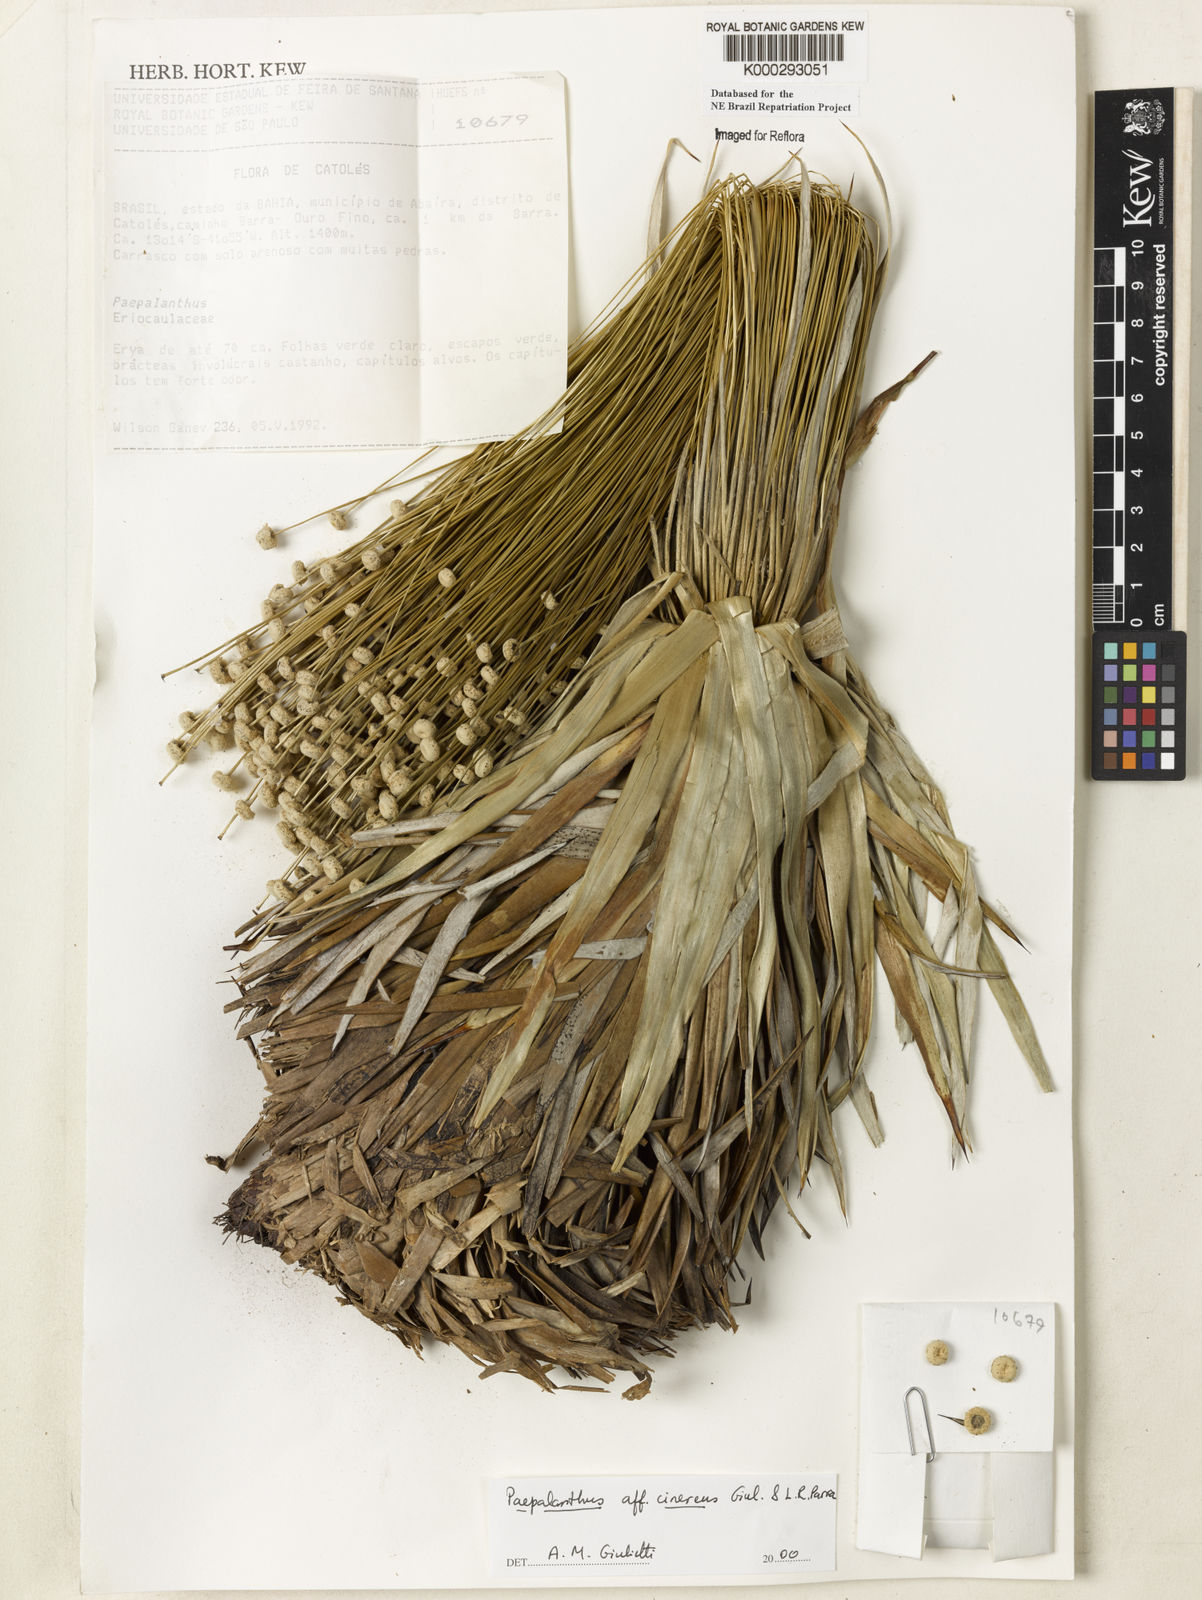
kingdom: Plantae
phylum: Tracheophyta
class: Liliopsida
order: Poales
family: Eriocaulaceae
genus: Paepalanthus
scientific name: Paepalanthus cinereus
